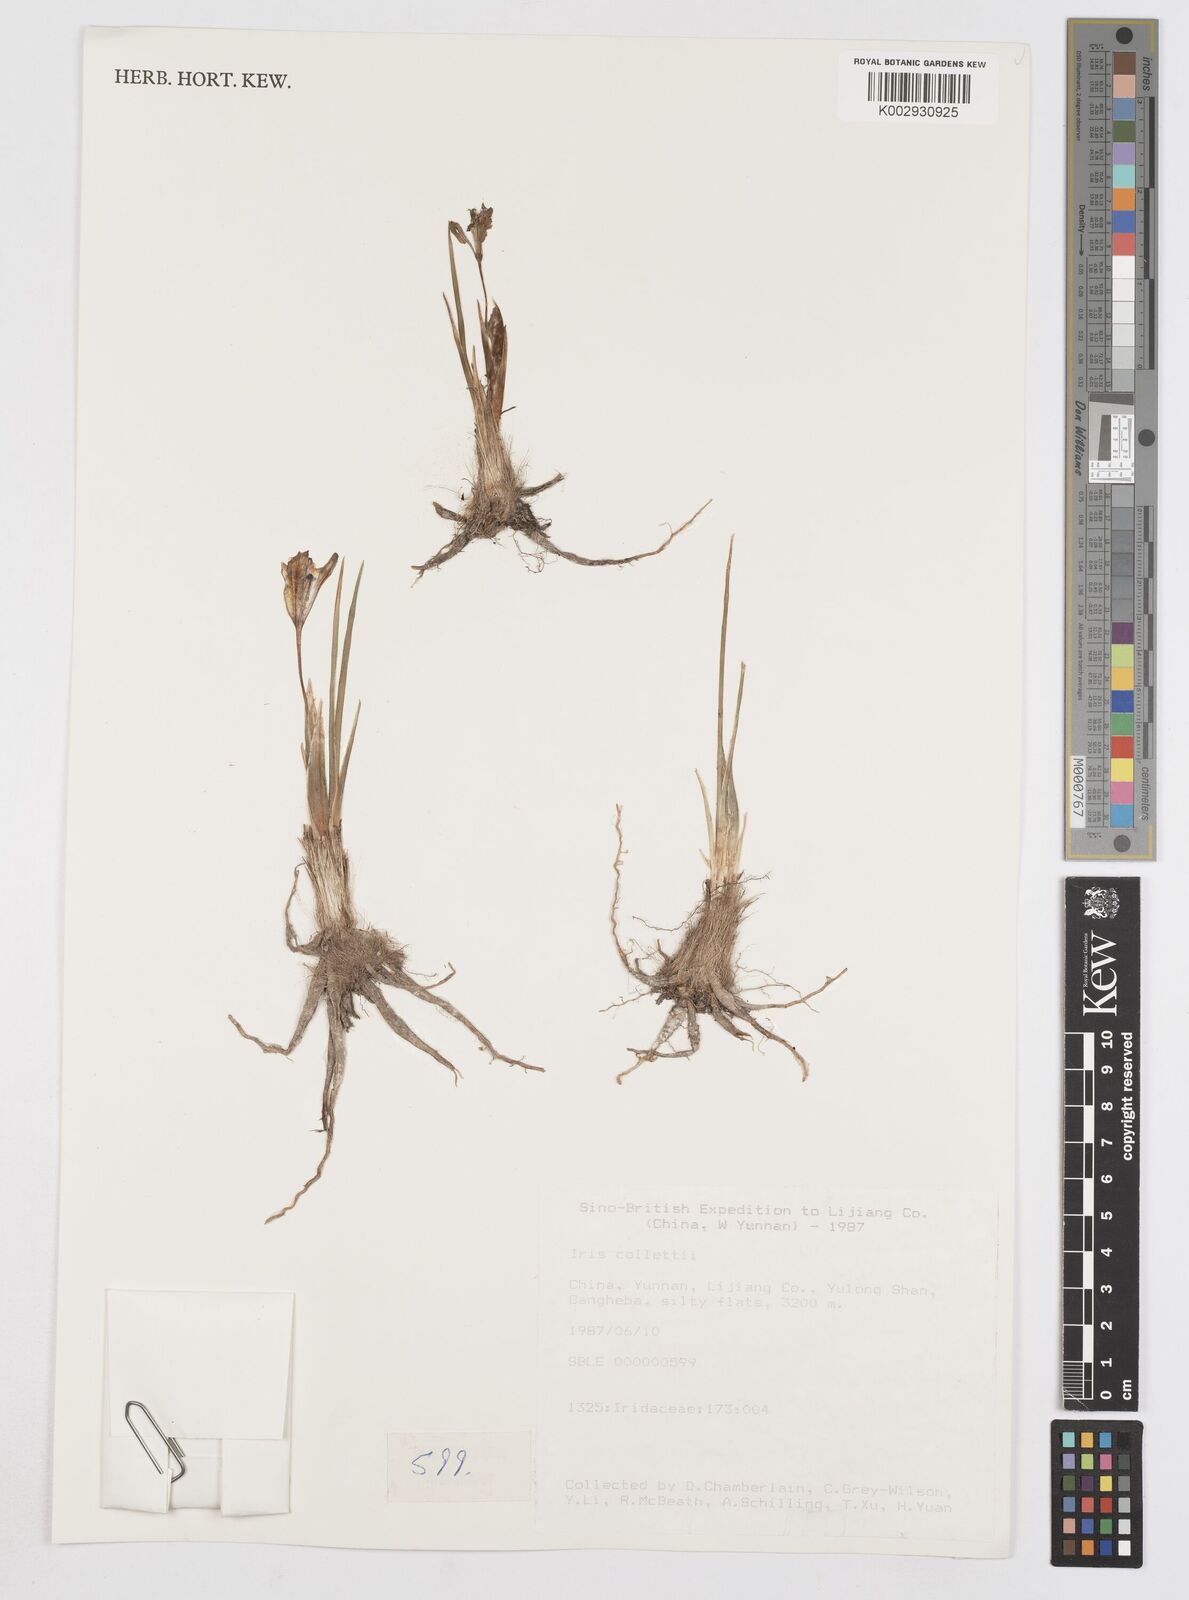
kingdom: Plantae
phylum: Tracheophyta
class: Liliopsida
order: Asparagales
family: Iridaceae
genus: Iris
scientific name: Iris collettii
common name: Plateau iris
